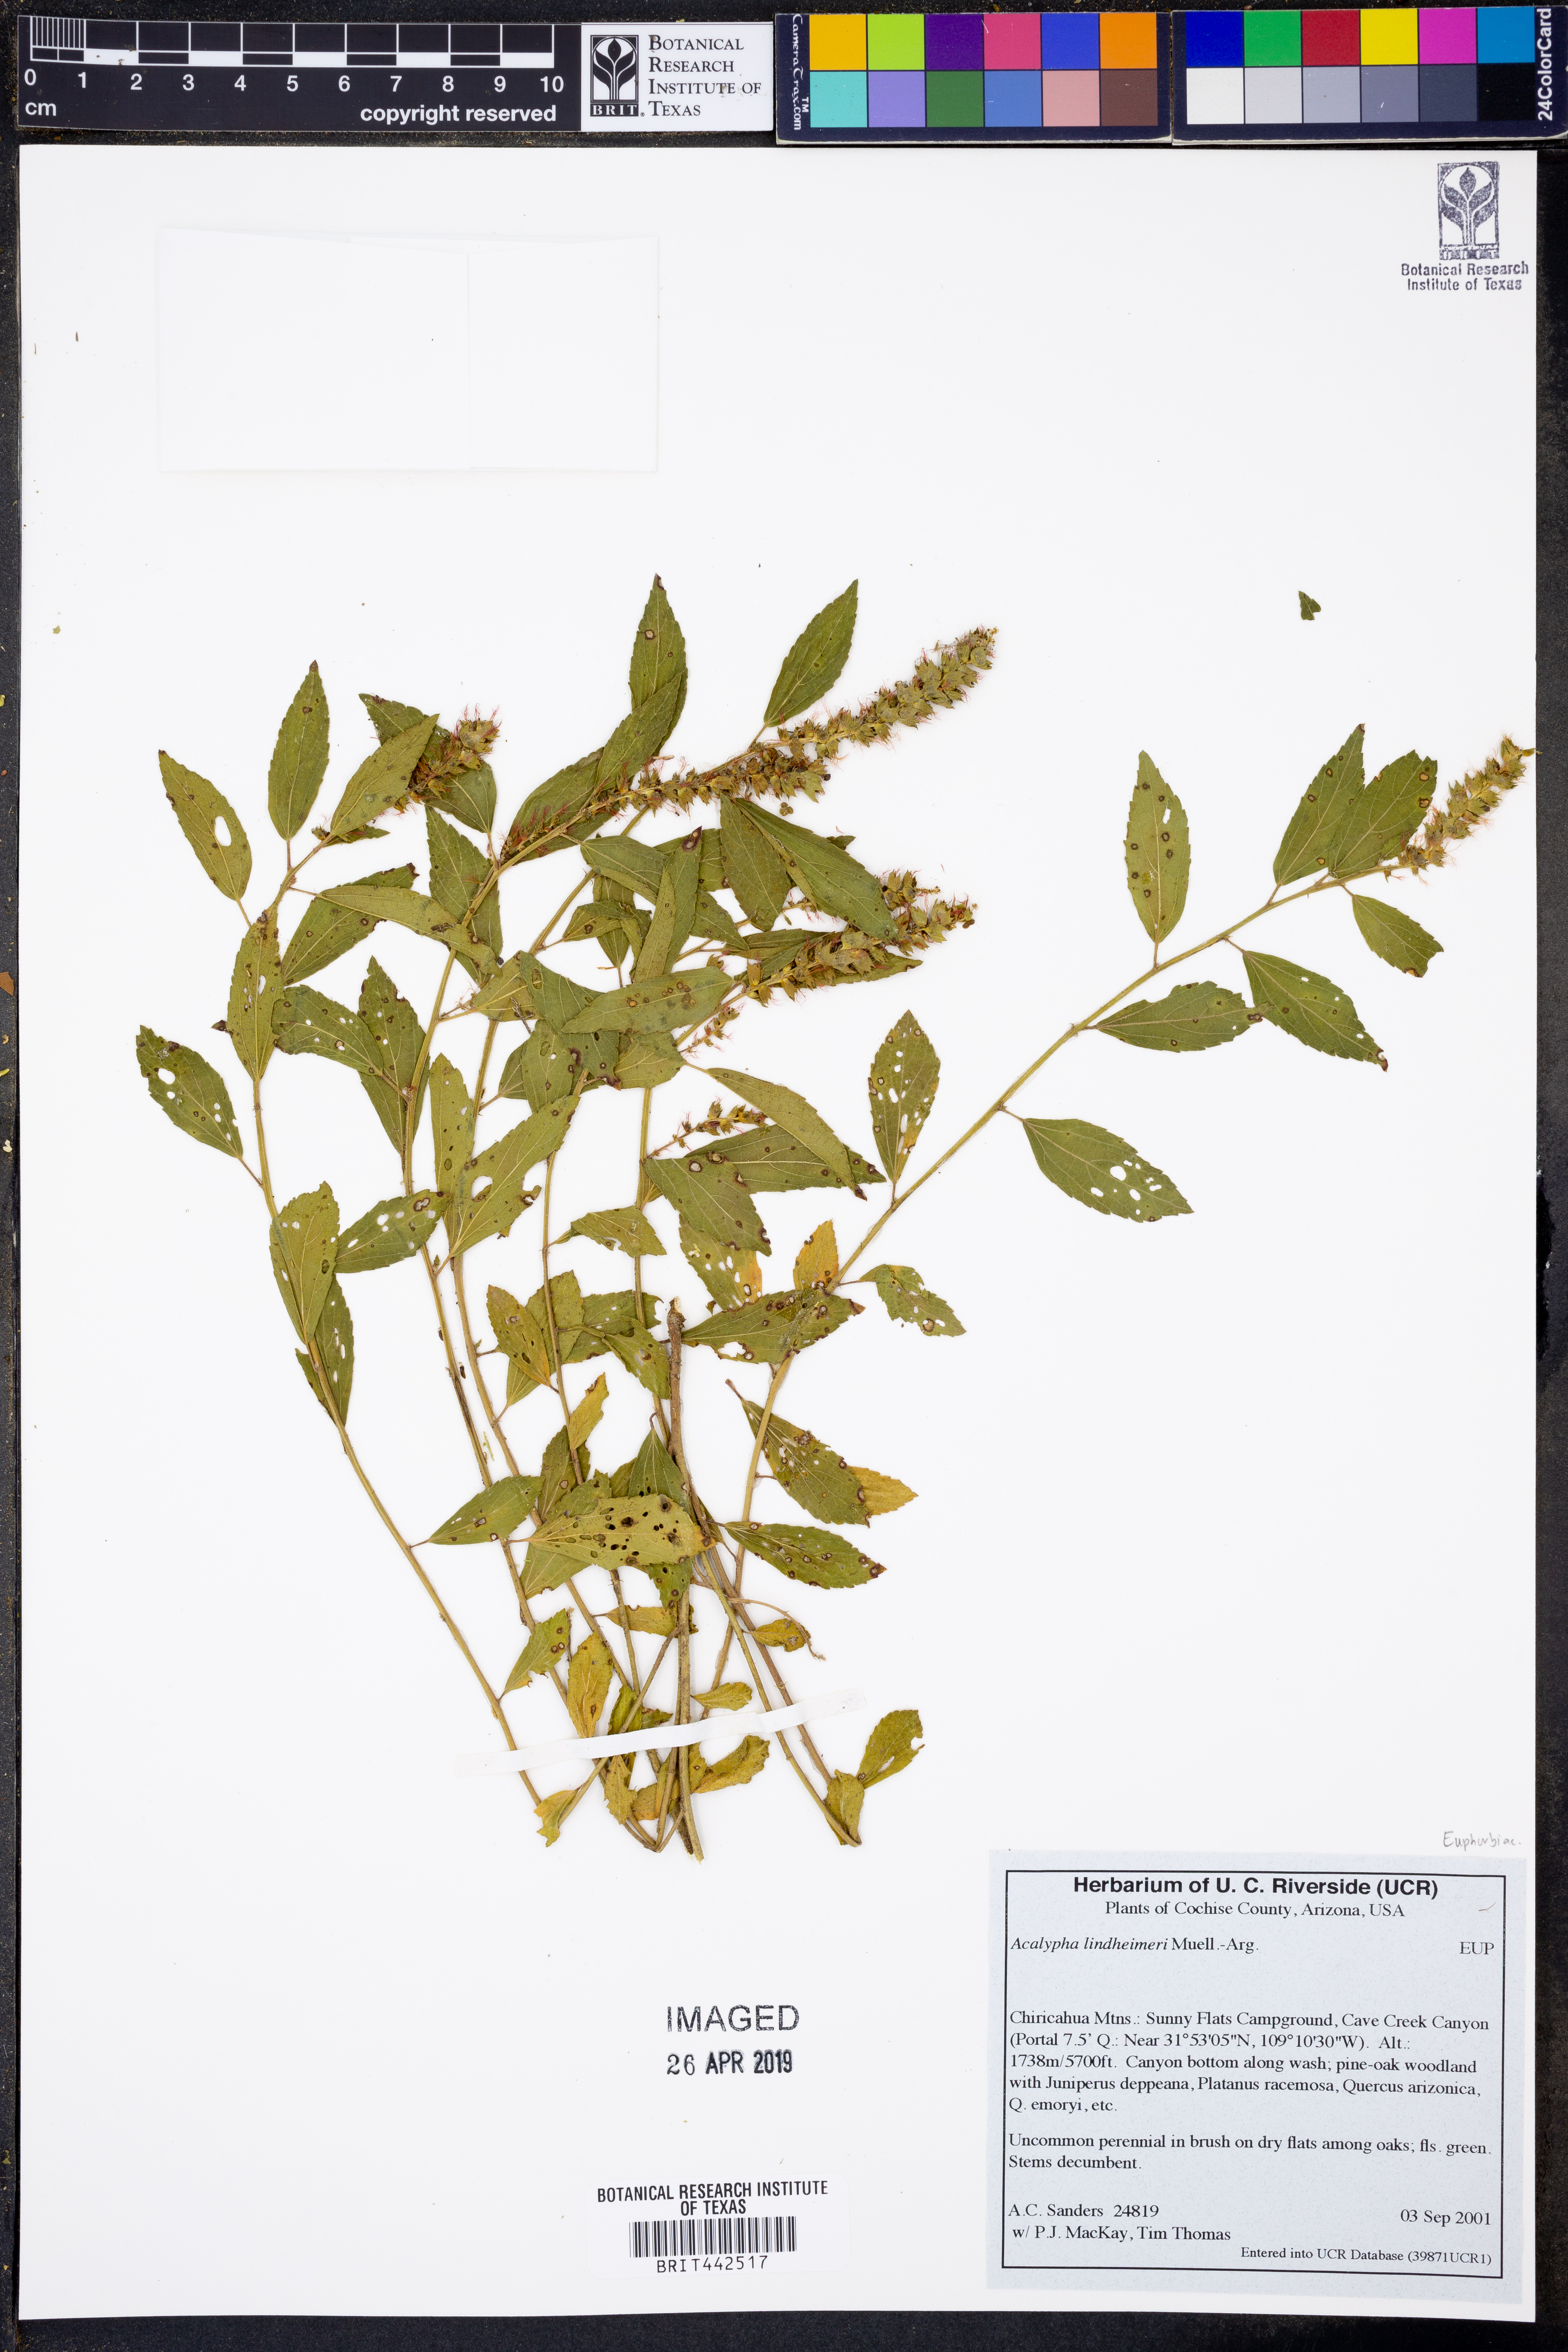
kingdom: Plantae
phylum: Tracheophyta
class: Magnoliopsida
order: Malpighiales
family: Euphorbiaceae
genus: Acalypha
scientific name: Acalypha phleoides
